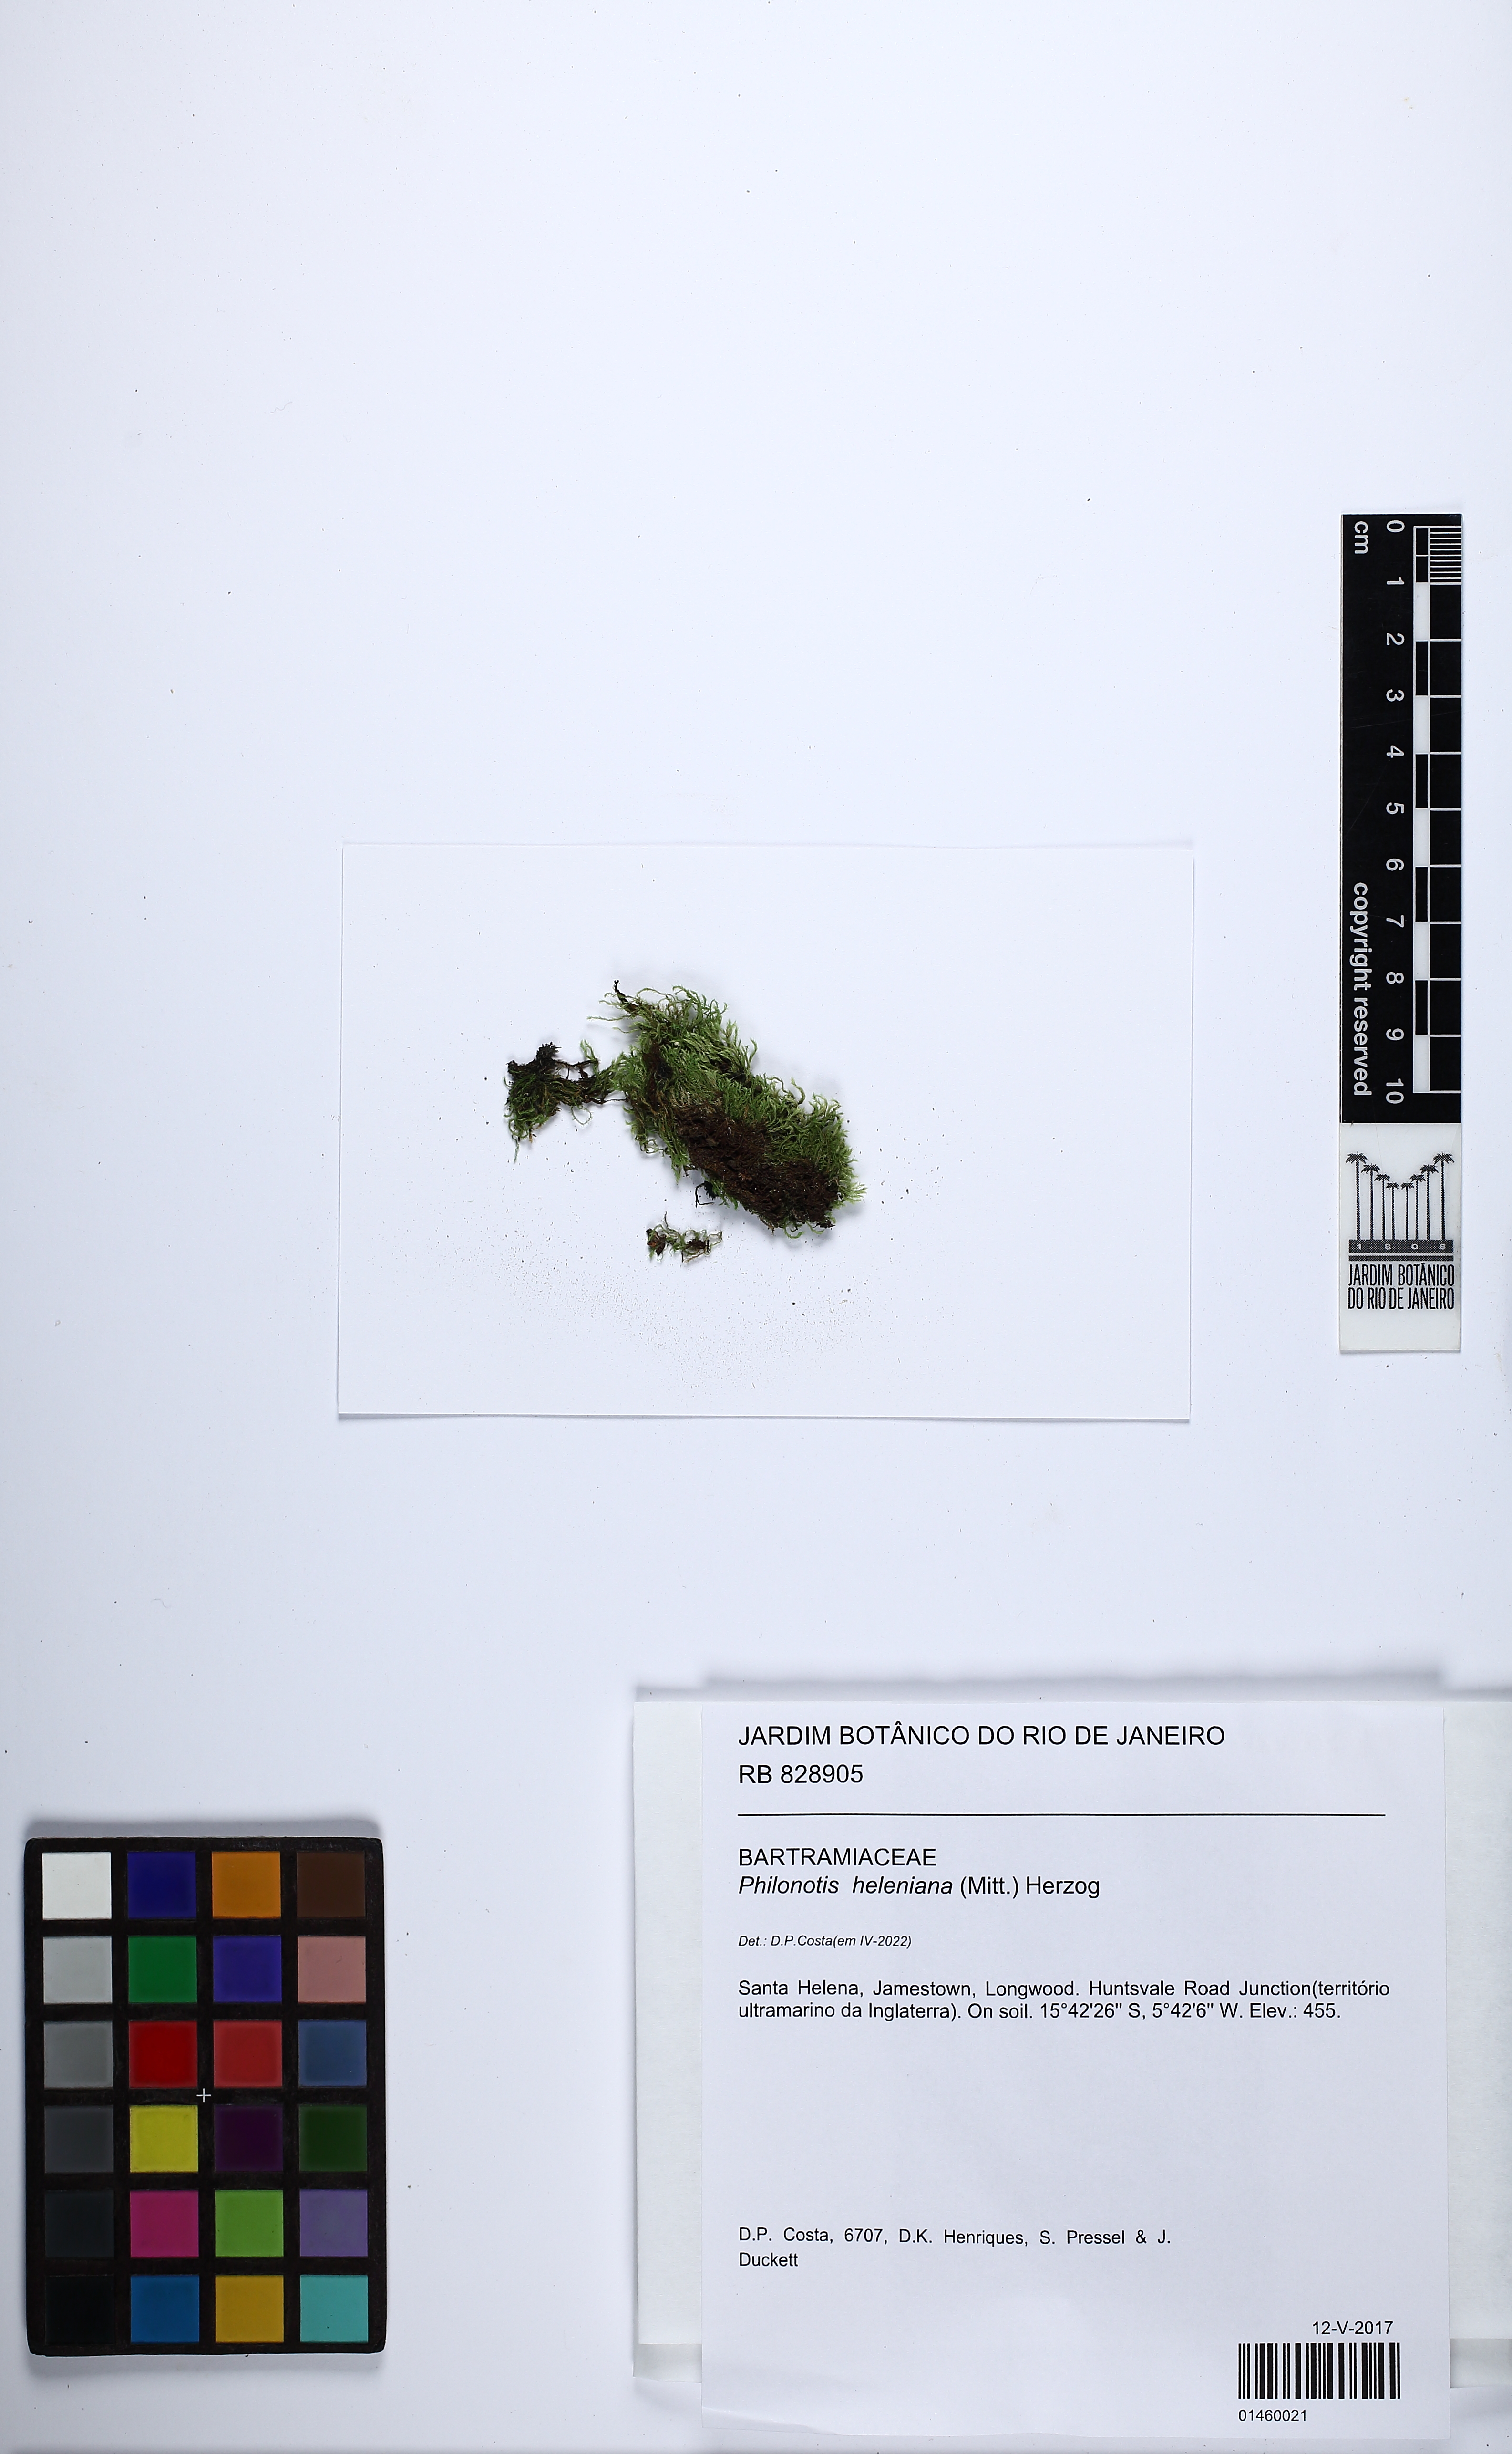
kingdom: Plantae
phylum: Bryophyta
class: Bryopsida
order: Bartramiales
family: Bartramiaceae
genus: Philonotis
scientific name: Philonotis fontana
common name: Fountain apple-moss
